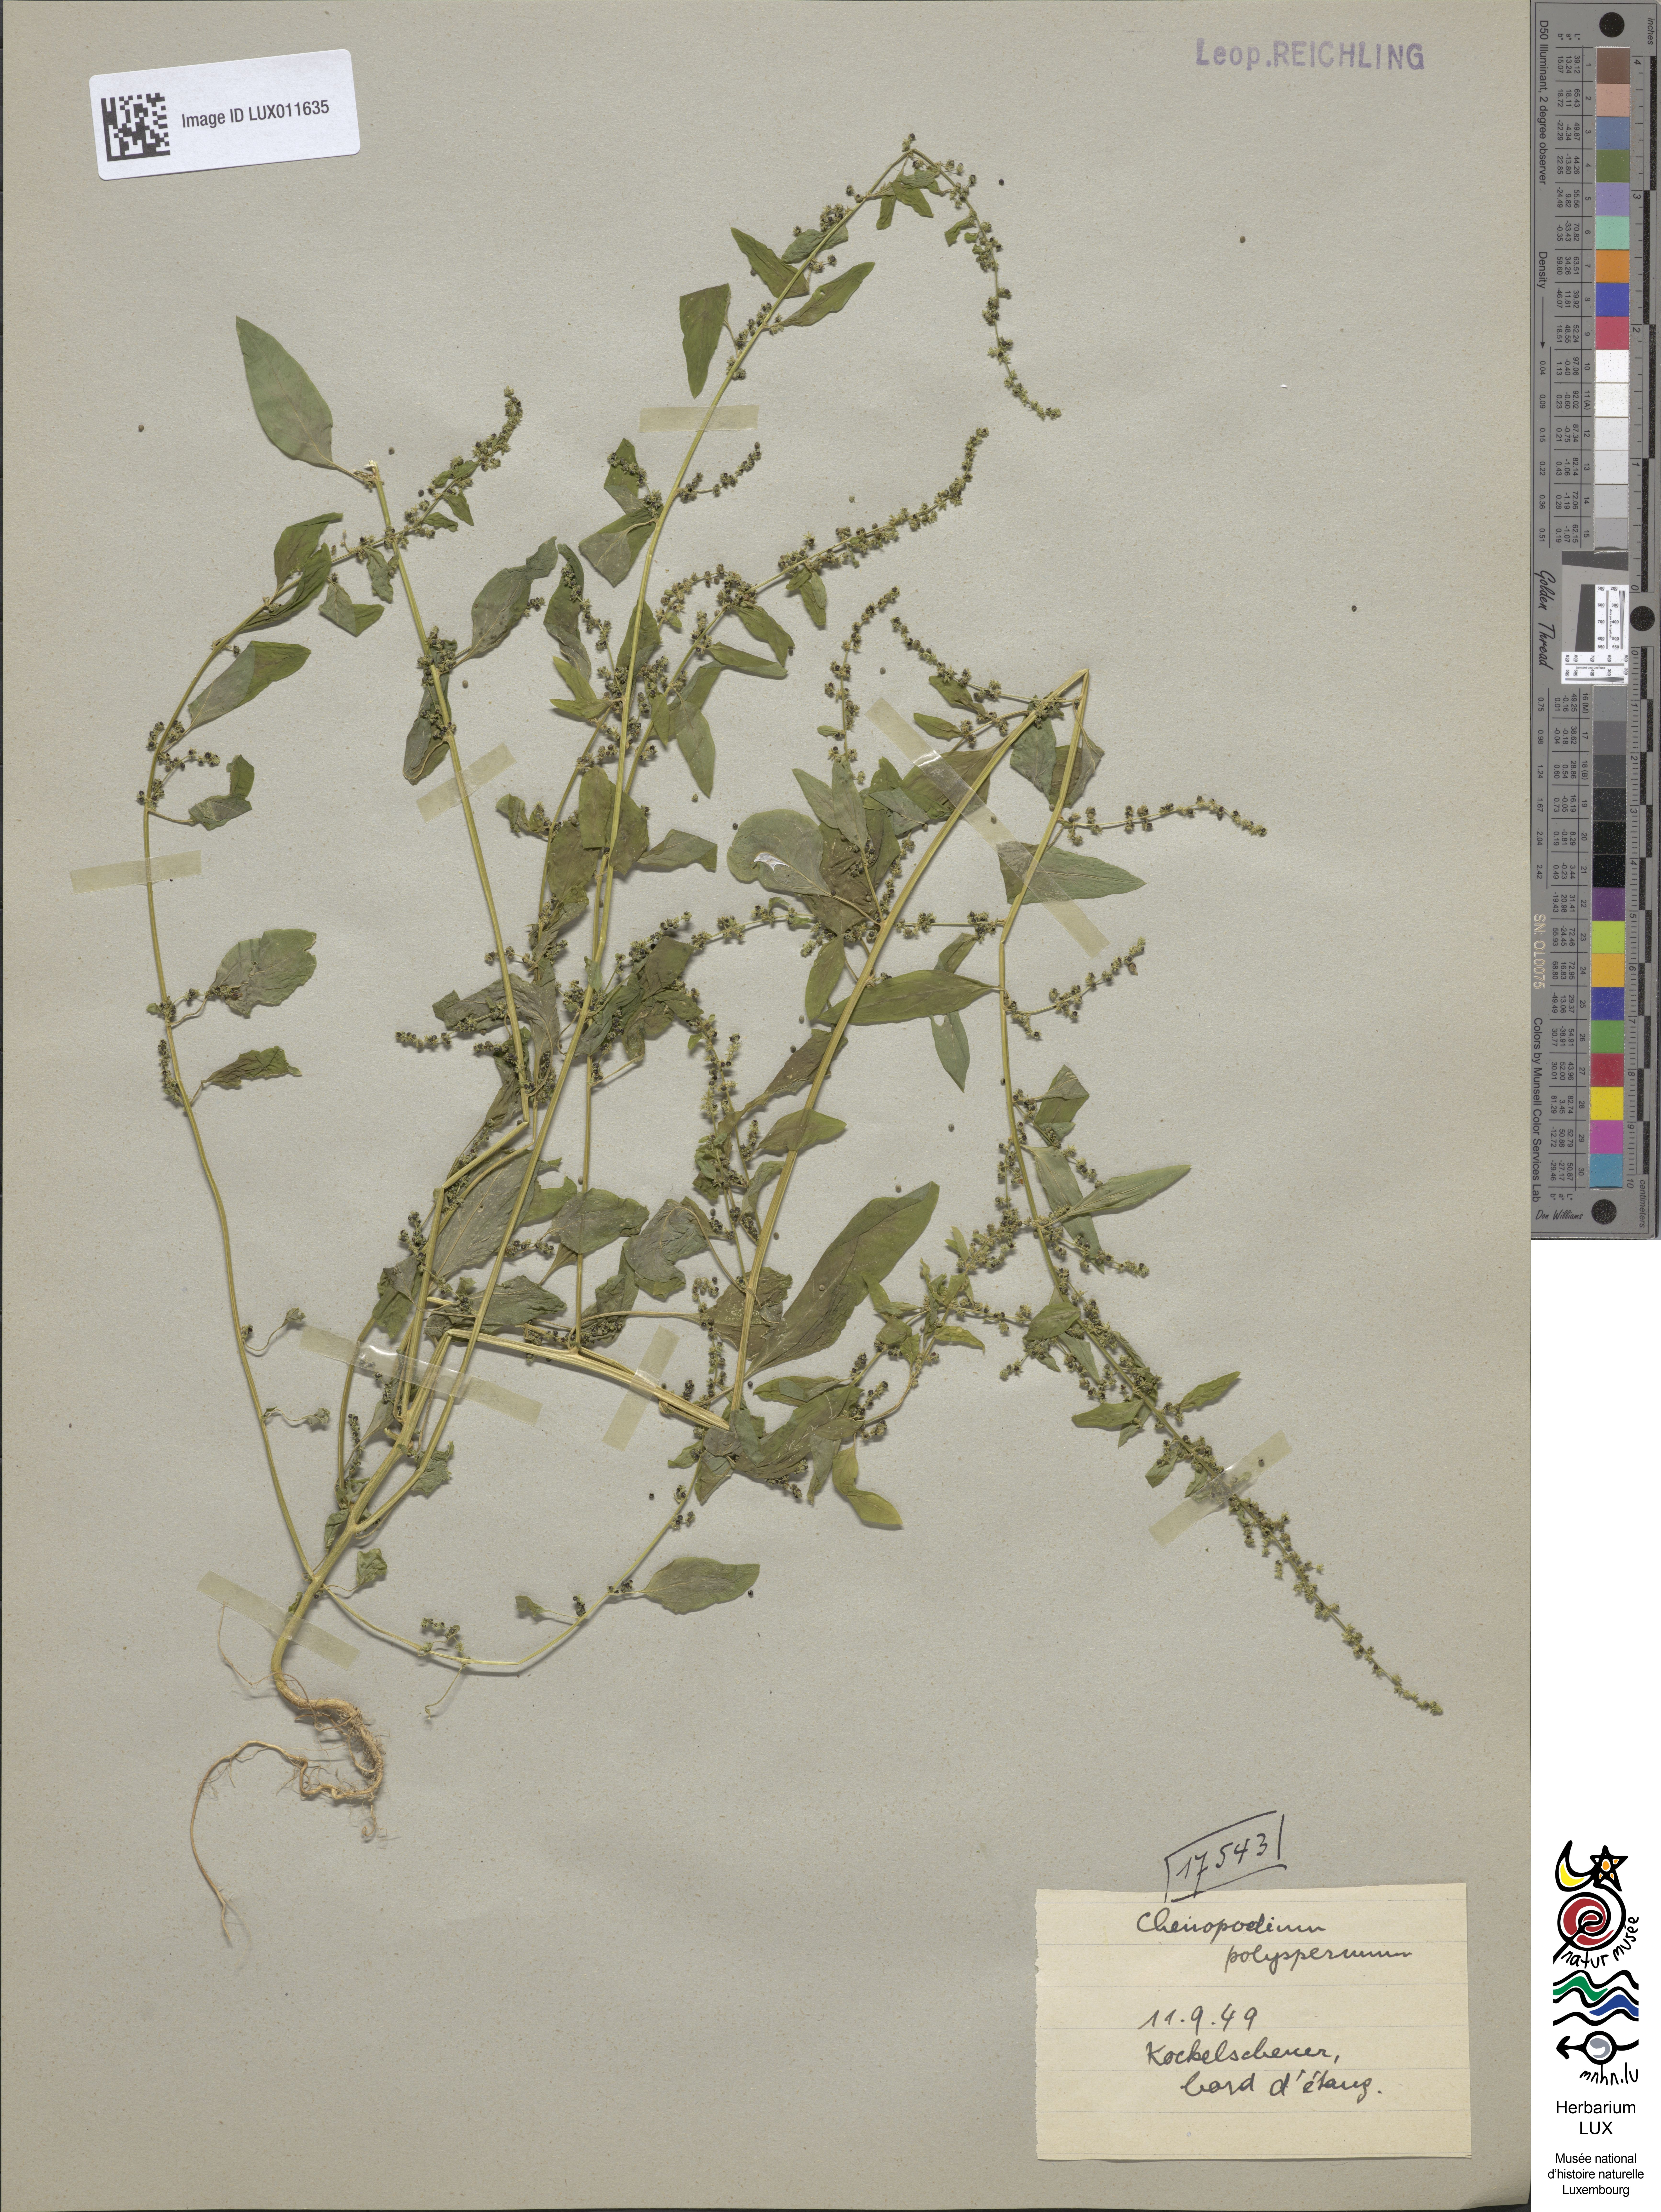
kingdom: Plantae
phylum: Tracheophyta
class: Magnoliopsida
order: Caryophyllales
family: Amaranthaceae
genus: Lipandra
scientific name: Lipandra polysperma
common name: Many-seed goosefoot
